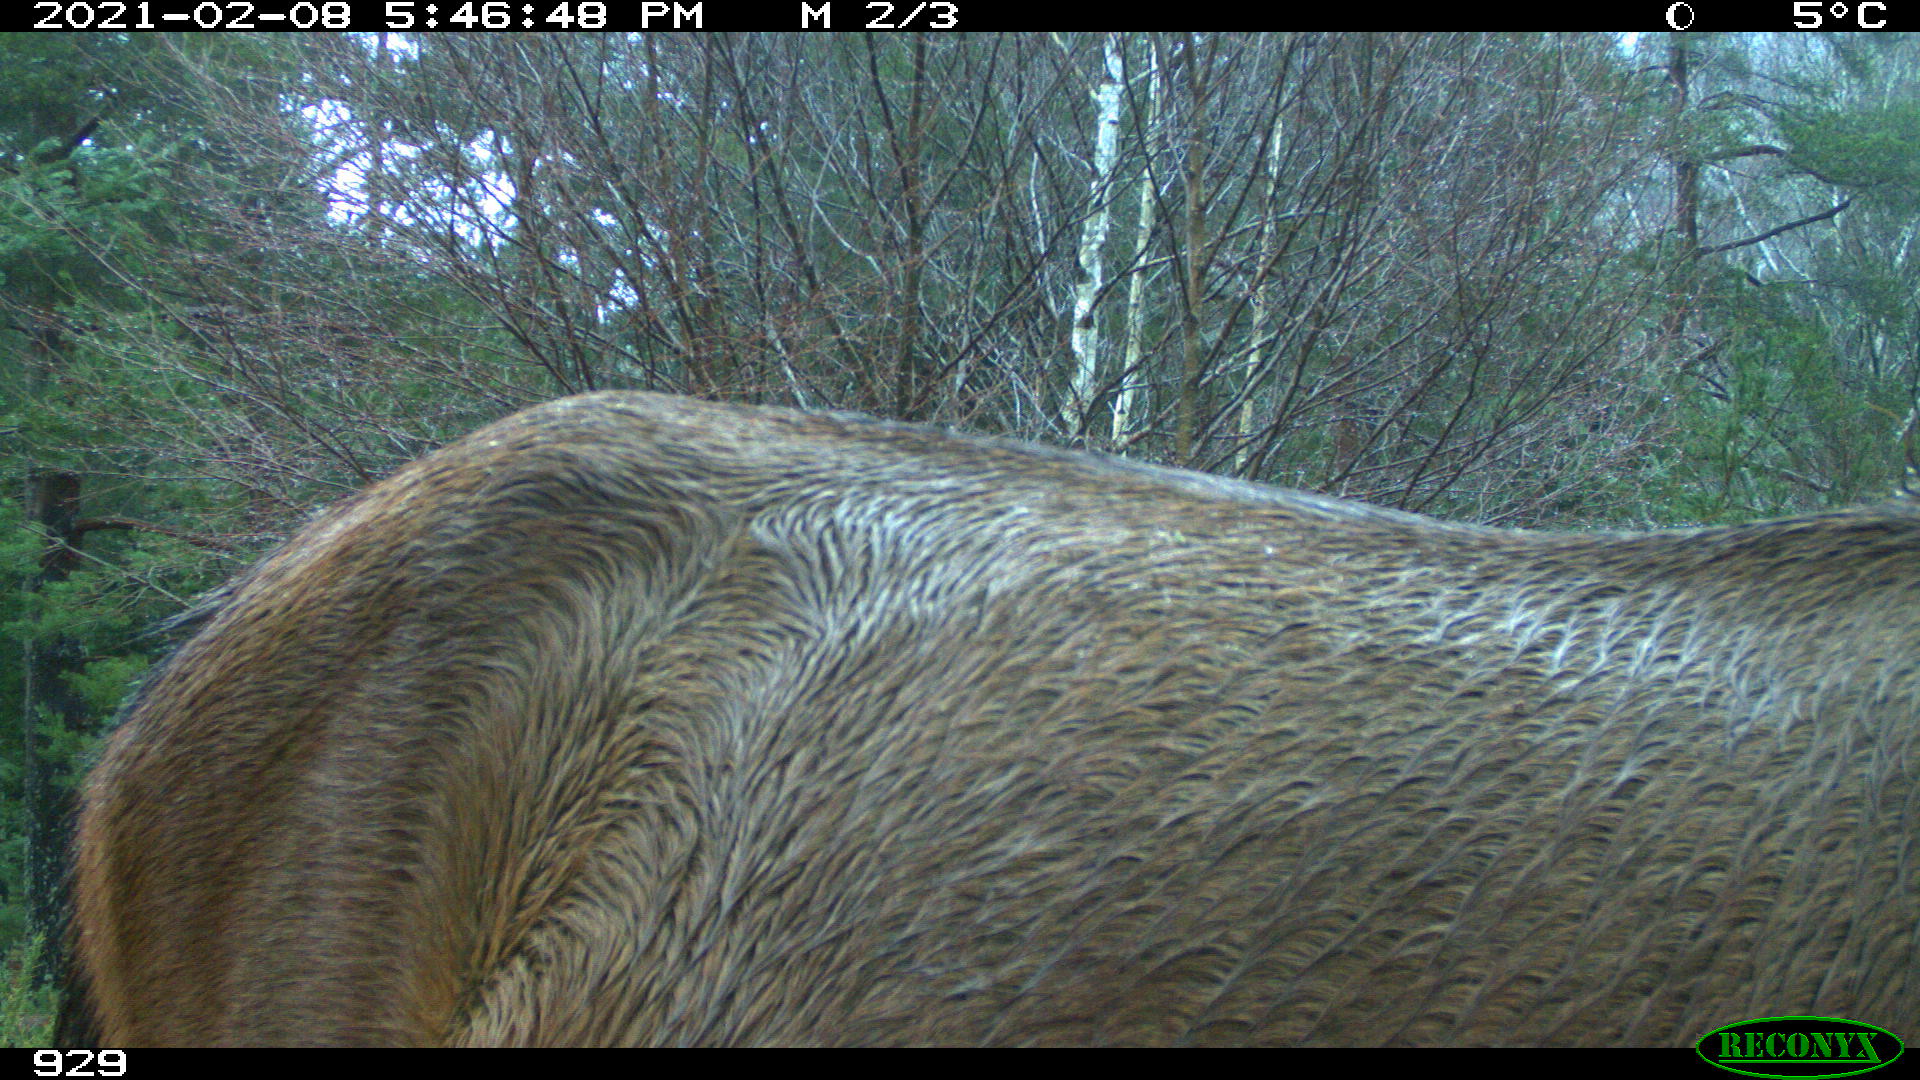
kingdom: Animalia
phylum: Chordata
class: Mammalia
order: Perissodactyla
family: Equidae
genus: Equus
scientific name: Equus caballus
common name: Horse
